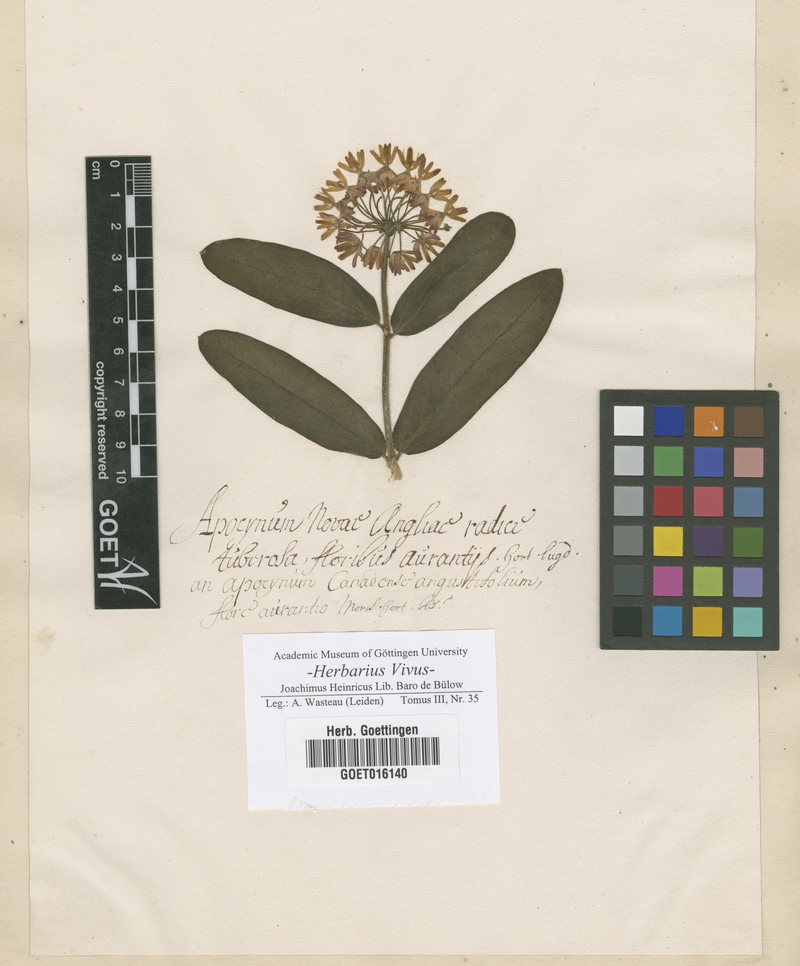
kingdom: Plantae
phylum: Tracheophyta
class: Magnoliopsida
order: Gentianales
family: Apocynaceae
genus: Asclepias
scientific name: Asclepias tuberosa
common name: Butterfly milkweed
